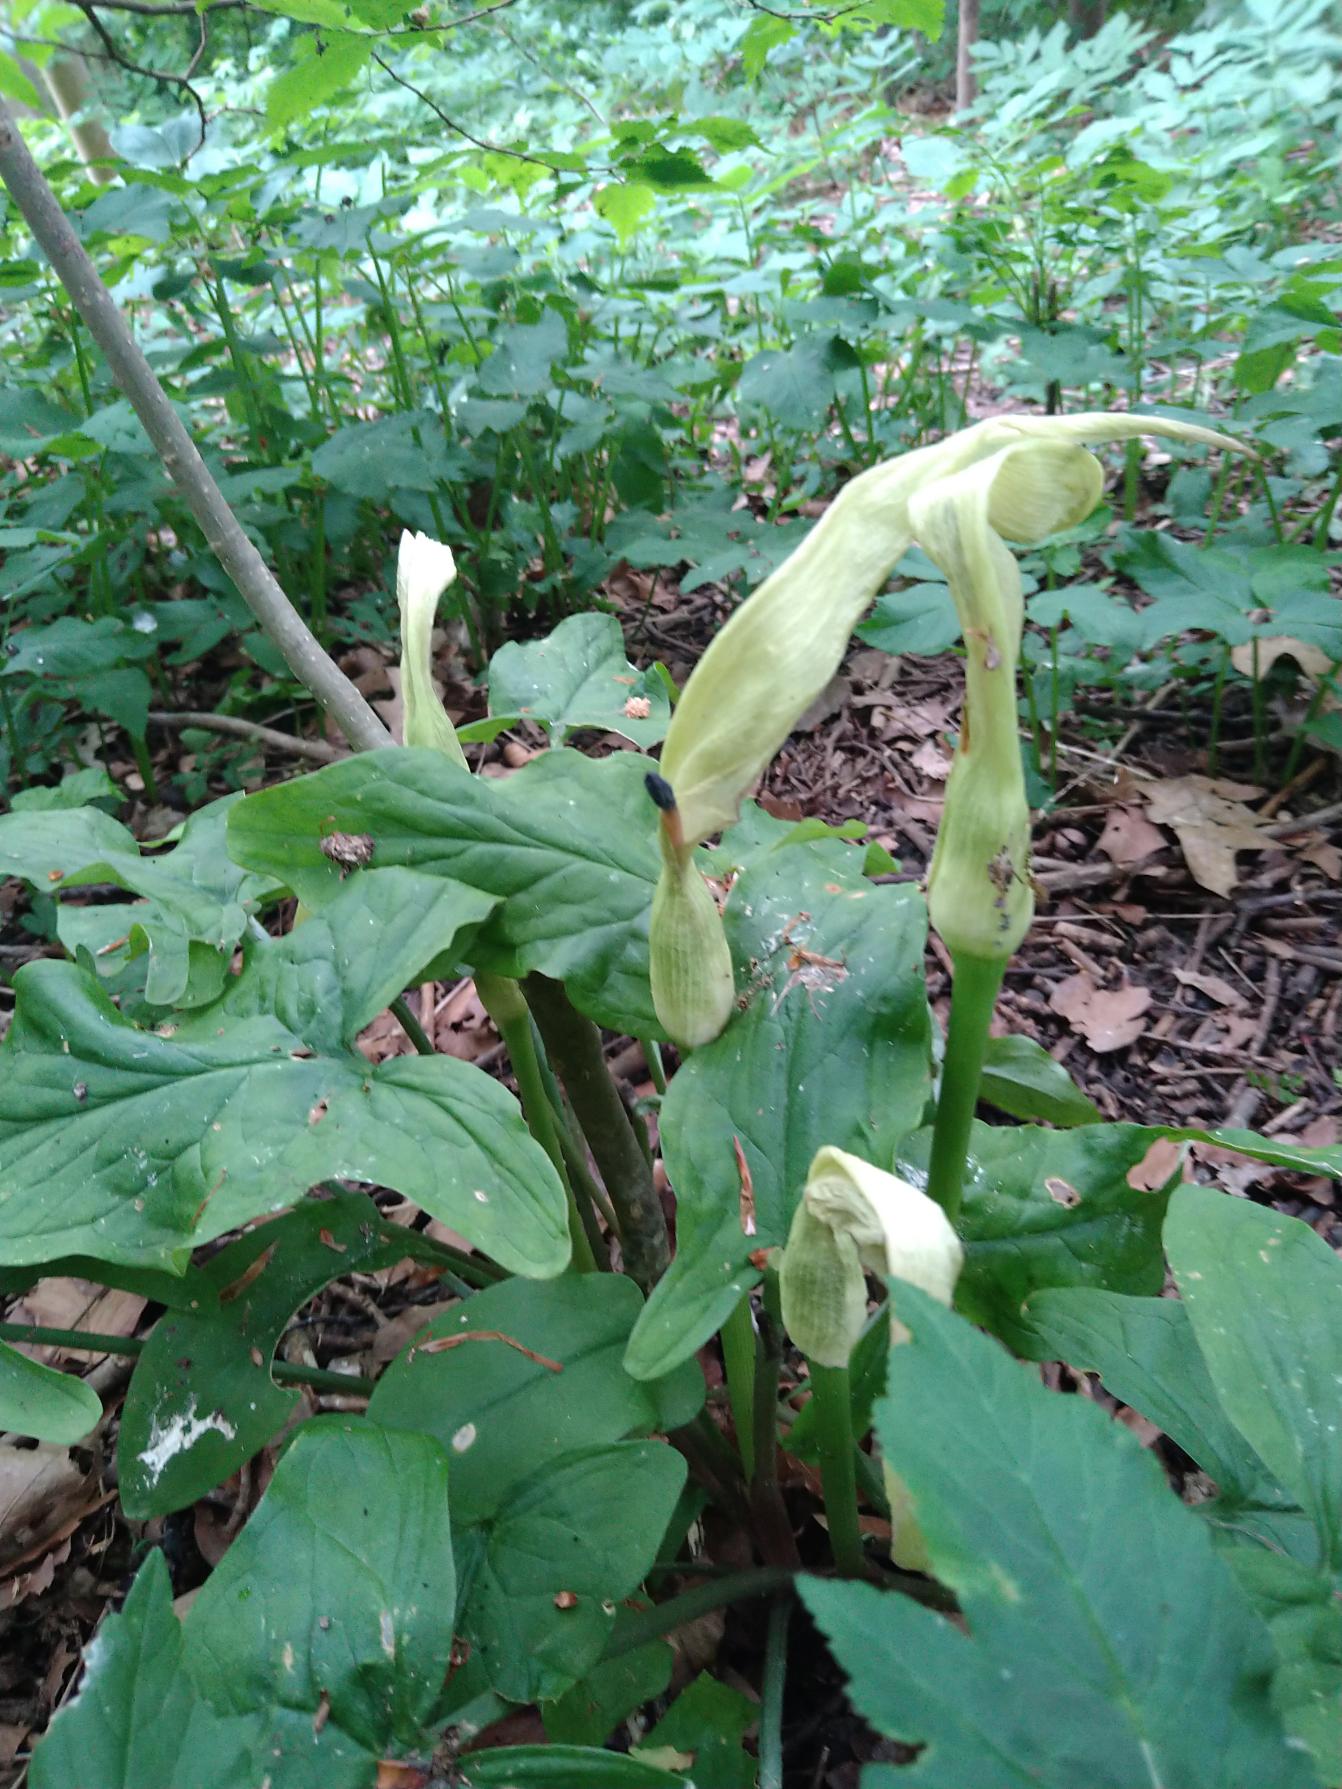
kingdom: Plantae
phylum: Tracheophyta
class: Liliopsida
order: Alismatales
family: Araceae
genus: Arum
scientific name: Arum maculatum
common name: Plettet arum
